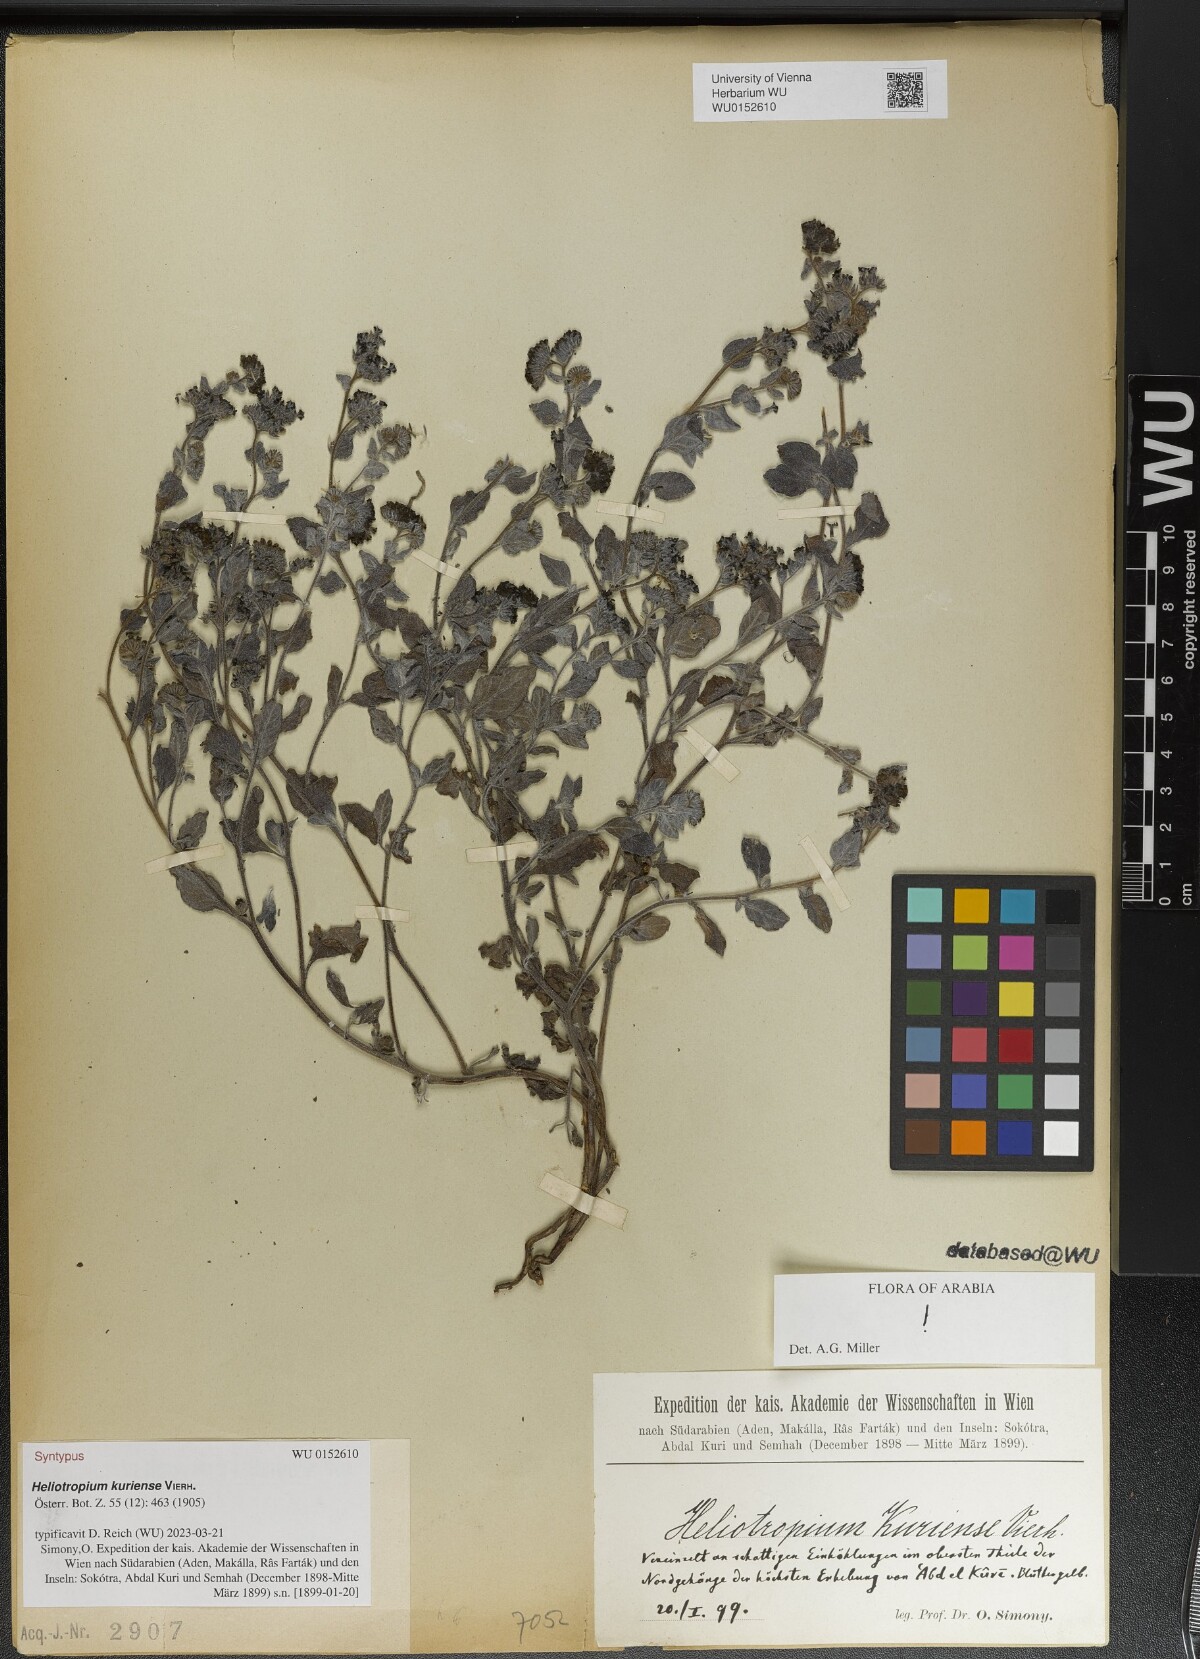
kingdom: Plantae
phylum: Tracheophyta
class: Magnoliopsida
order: Boraginales
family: Heliotropiaceae
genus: Heliotropium
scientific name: Heliotropium kuriense
